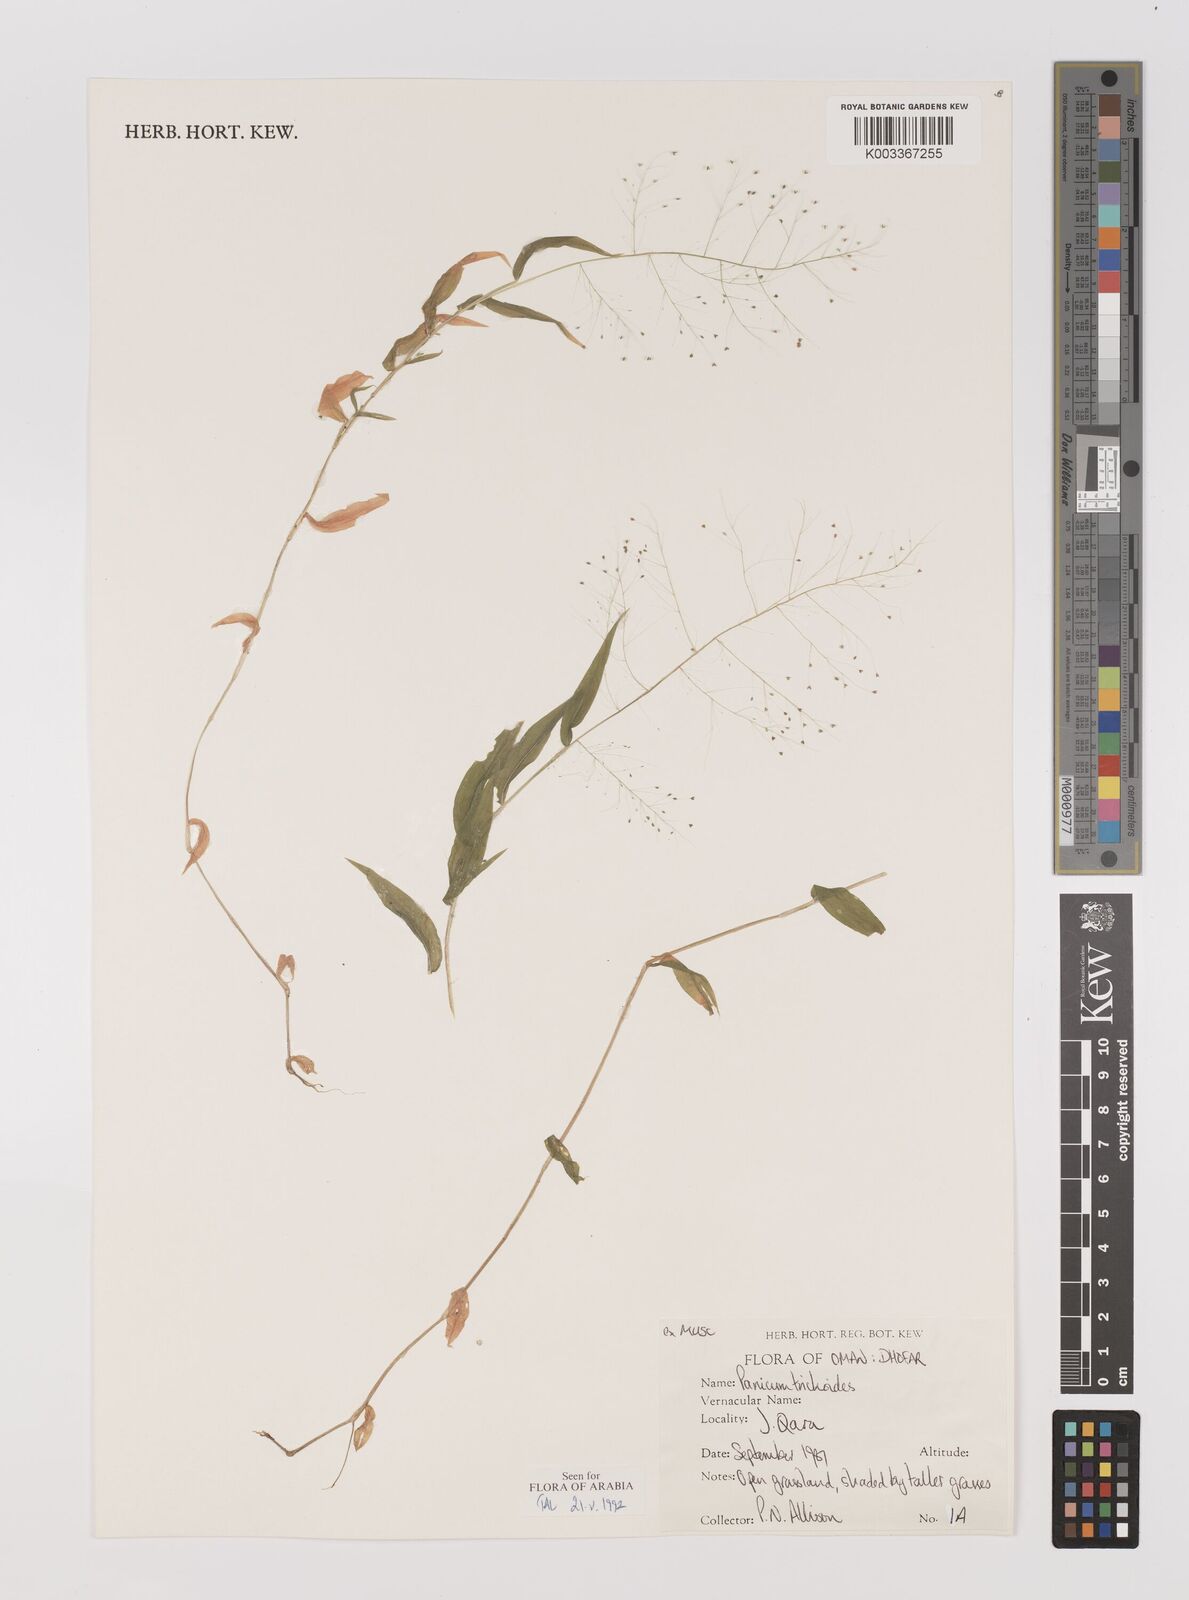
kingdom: Plantae
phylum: Tracheophyta
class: Liliopsida
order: Poales
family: Poaceae
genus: Panicum
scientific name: Panicum trichoides
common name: Tickle grass
